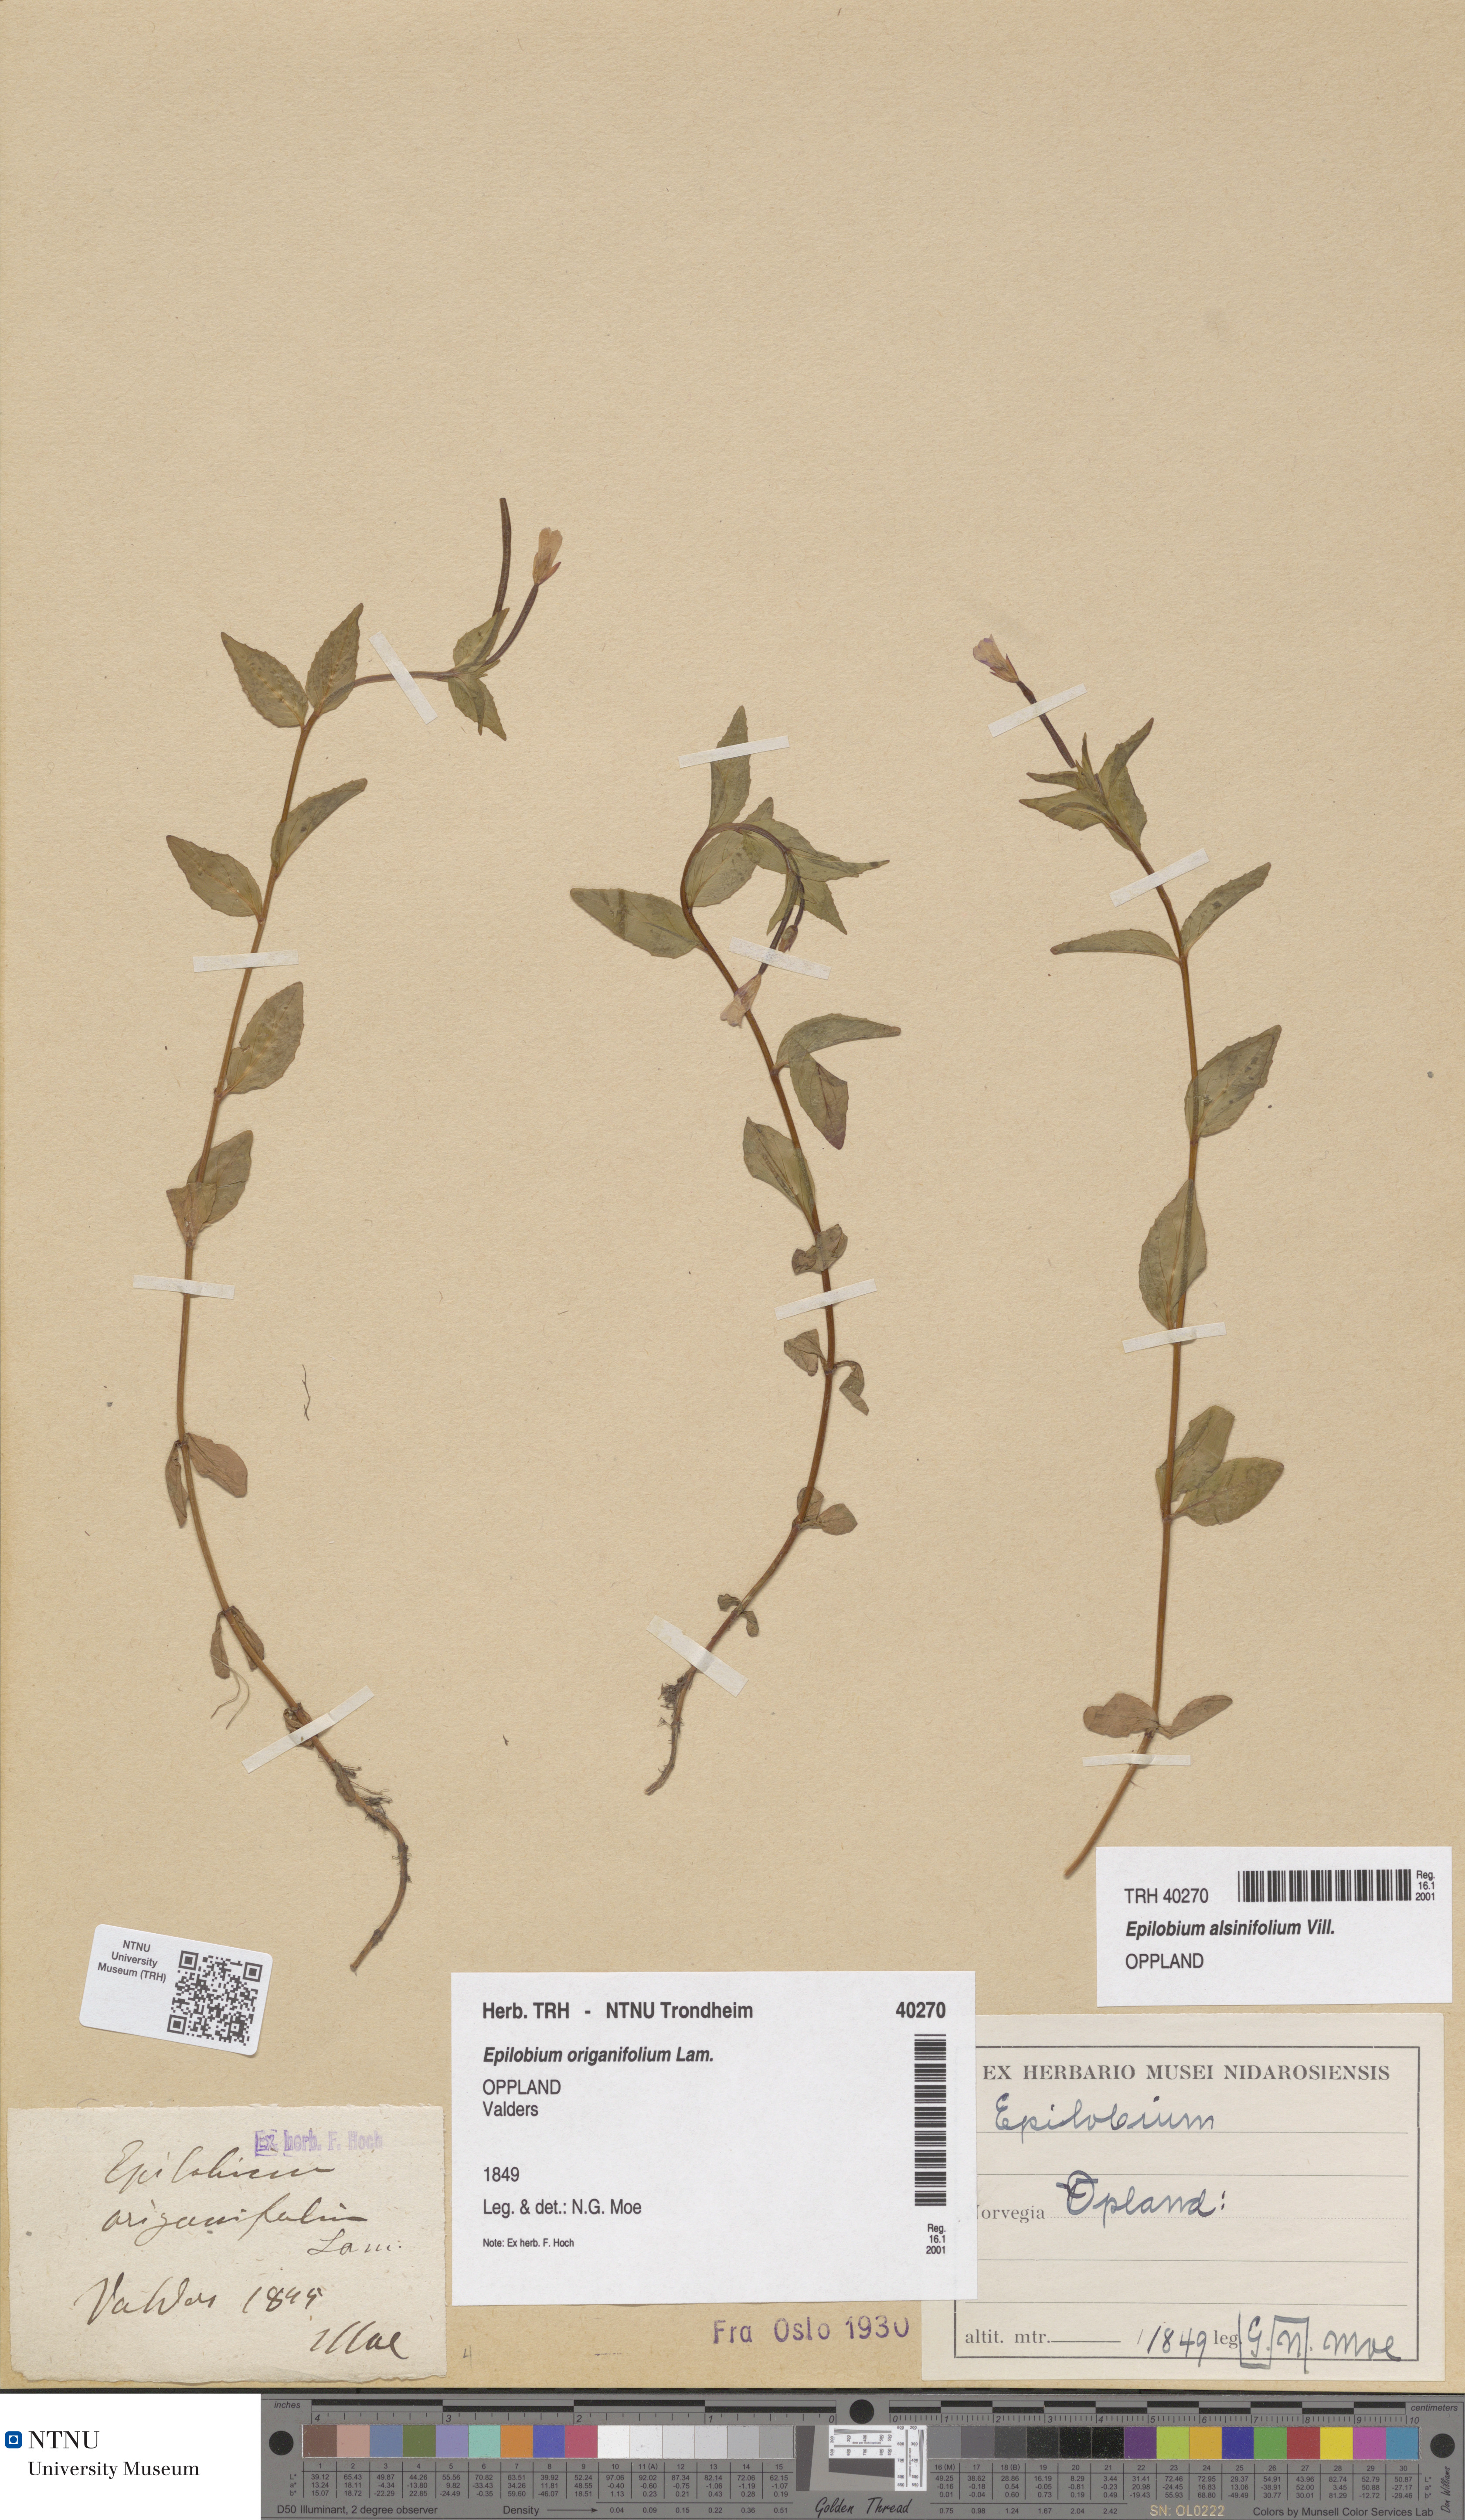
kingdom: Plantae
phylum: Tracheophyta
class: Magnoliopsida
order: Myrtales
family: Onagraceae
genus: Epilobium
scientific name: Epilobium alsinifolium
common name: Chickweed willowherb
